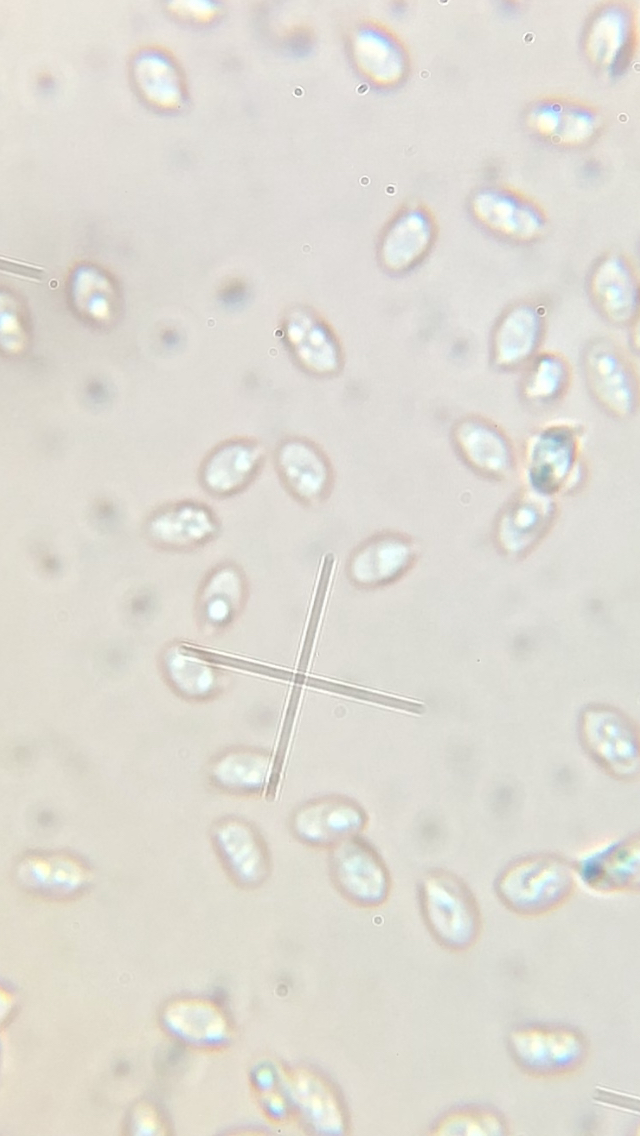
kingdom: Fungi
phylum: Basidiomycota
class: Agaricomycetes
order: Agaricales
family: Tricholomataceae
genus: Clitocybe
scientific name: Clitocybe rivulosa
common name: eng-tragthat
